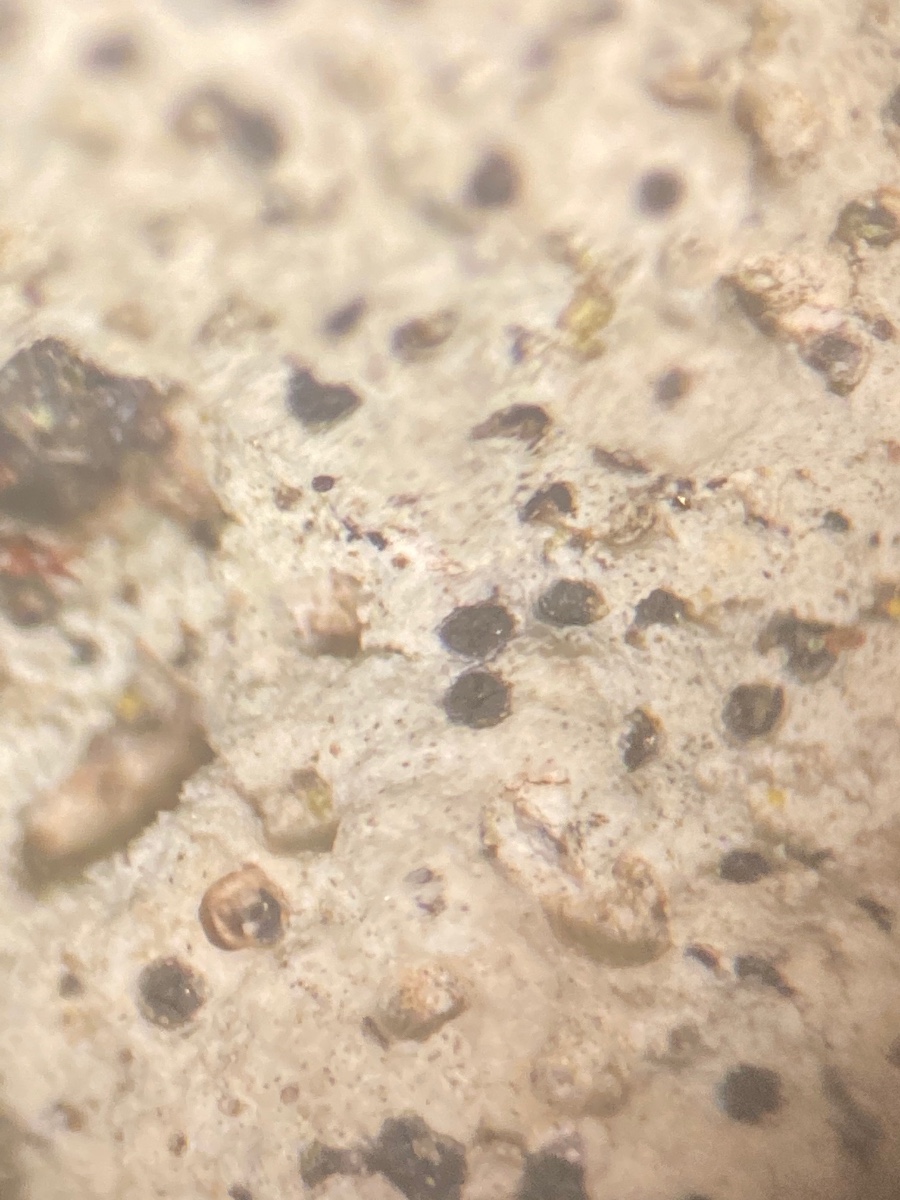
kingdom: Fungi
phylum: Ascomycota
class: Eurotiomycetes
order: Verrucariales
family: Verrucariaceae
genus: Verrucaria
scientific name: Verrucaria
